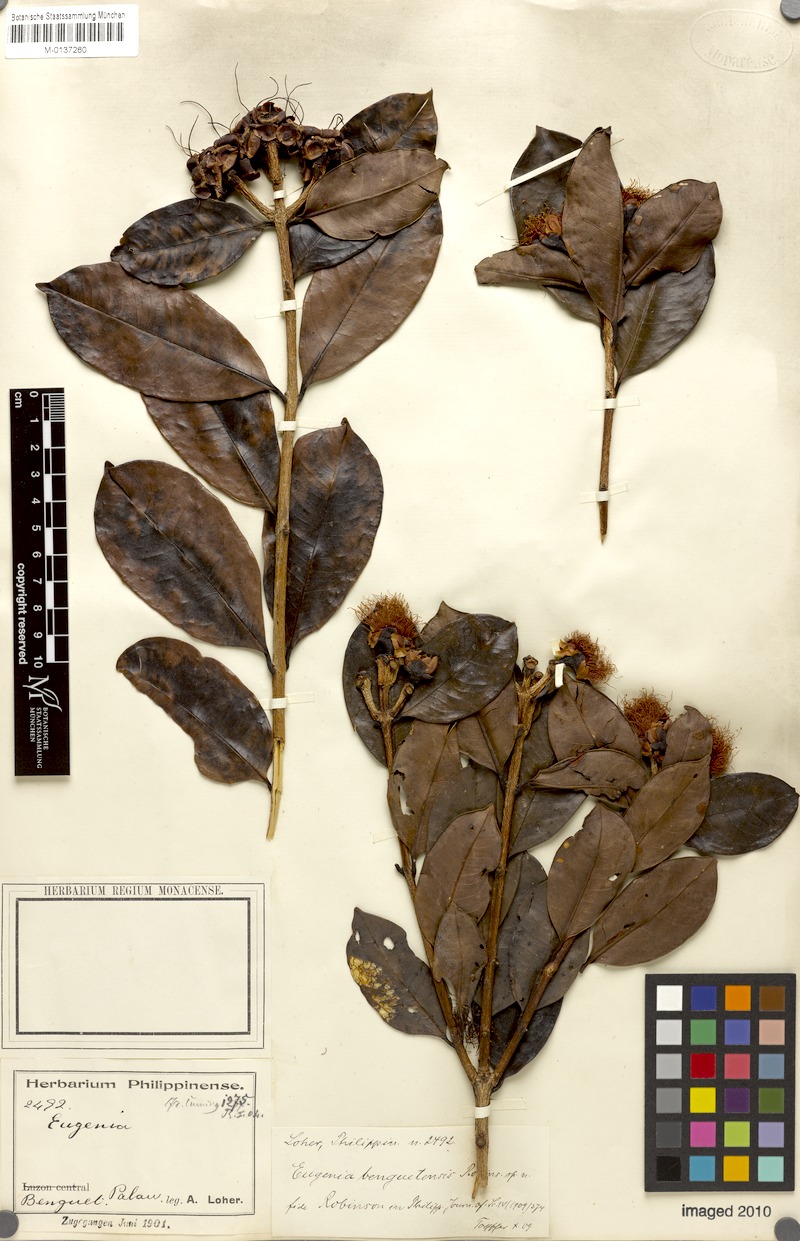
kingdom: Plantae
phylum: Tracheophyta
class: Magnoliopsida
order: Myrtales
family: Myrtaceae
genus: Syzygium
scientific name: Syzygium benguetense
